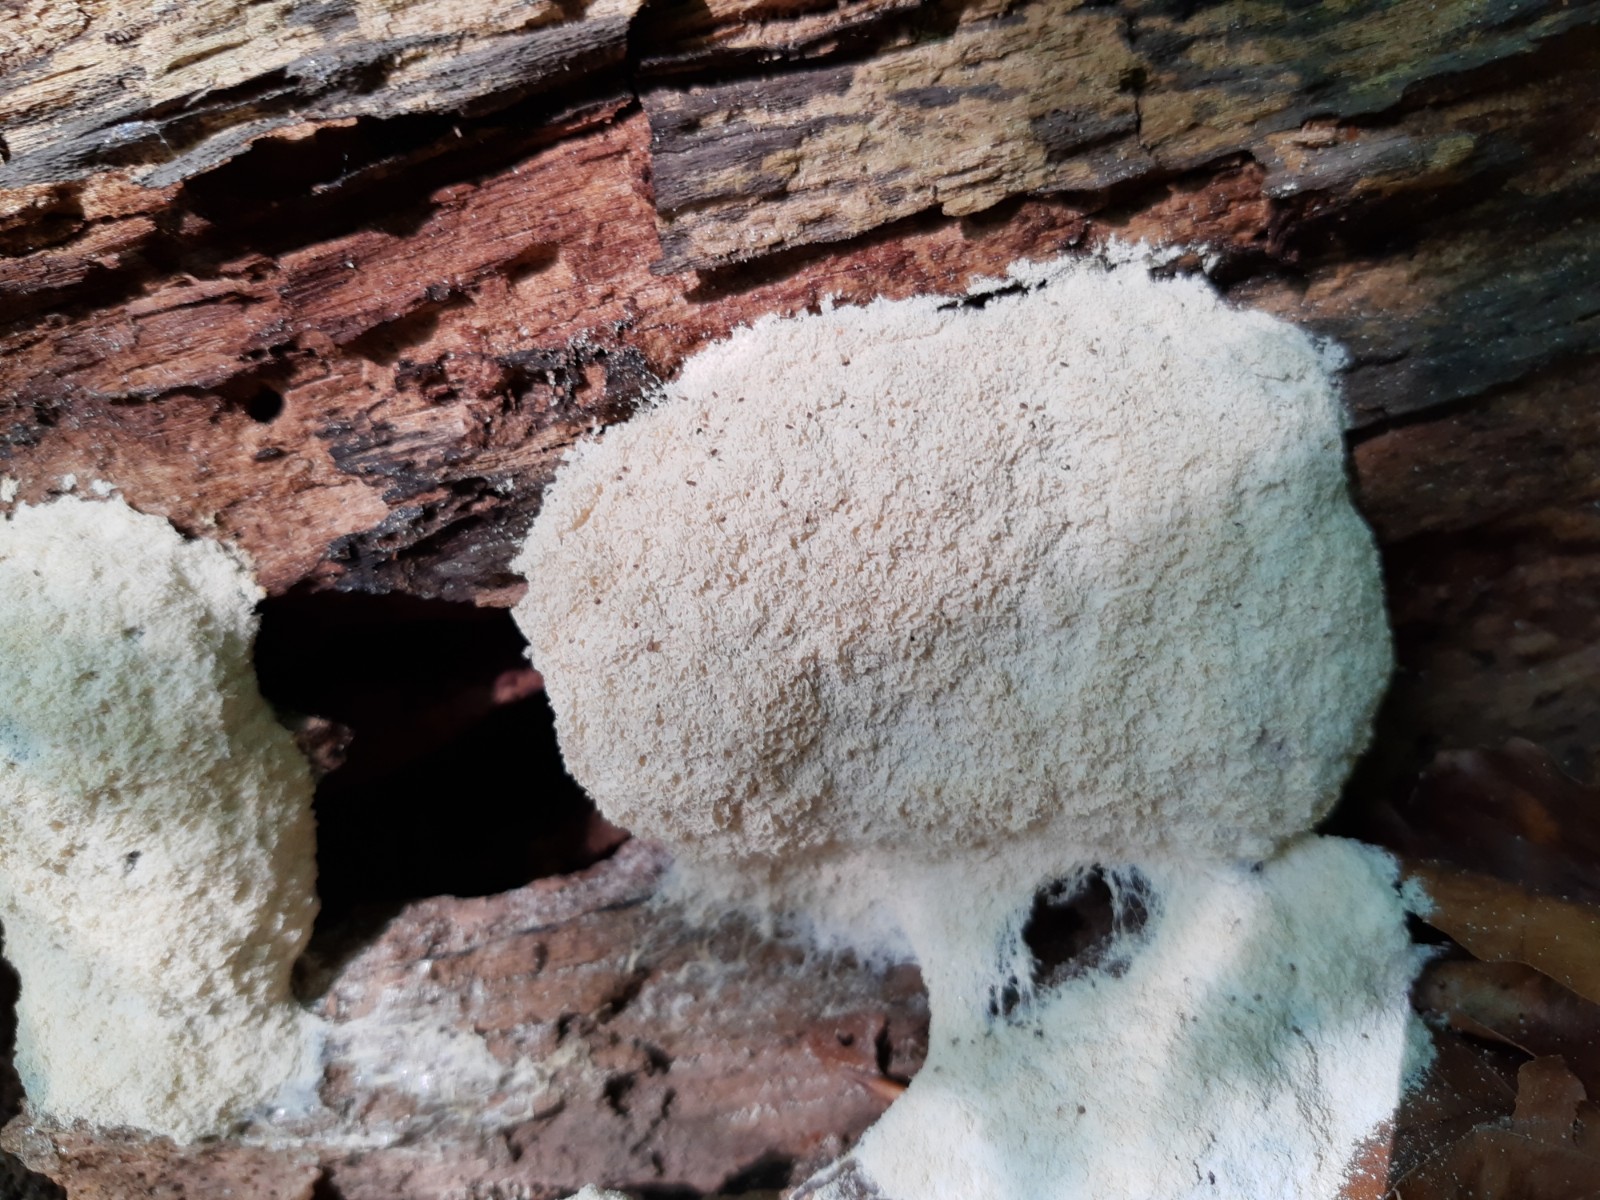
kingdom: Protozoa
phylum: Mycetozoa
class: Myxomycetes
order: Physarales
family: Physaraceae
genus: Fuligo
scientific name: Fuligo septica
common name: Dog vomit slime mold
